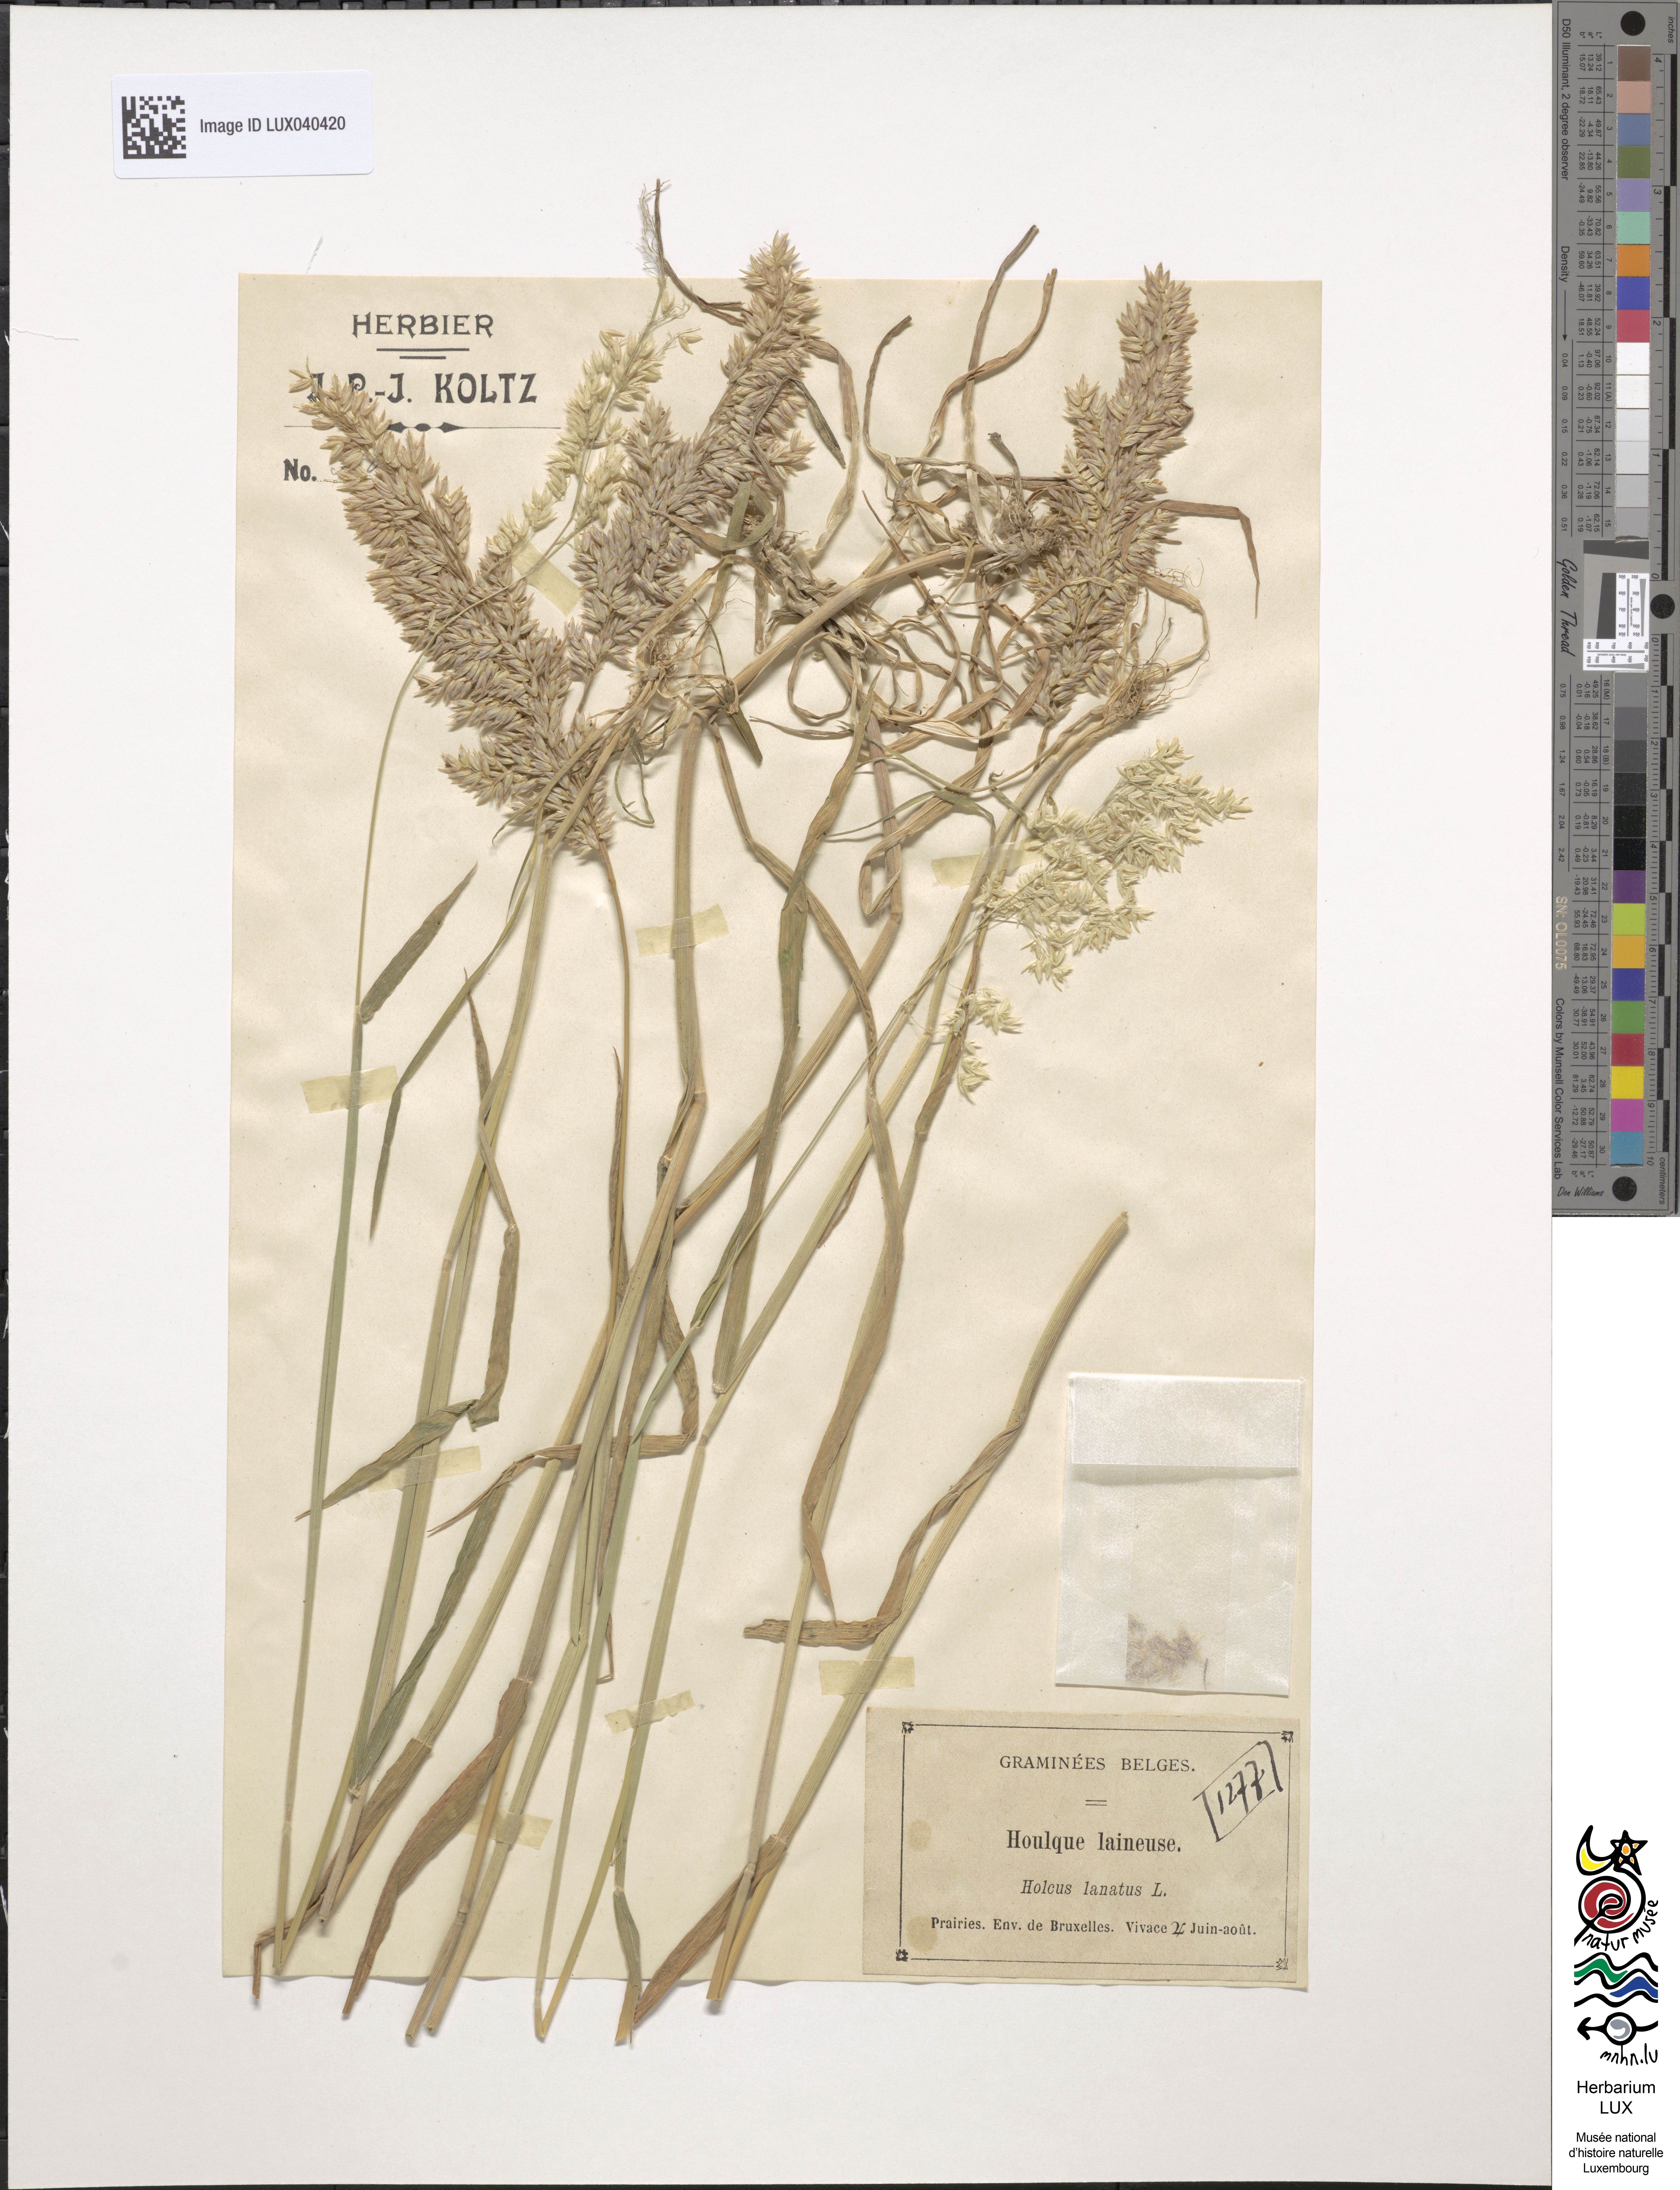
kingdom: Plantae
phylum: Tracheophyta
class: Liliopsida
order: Poales
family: Poaceae
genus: Holcus
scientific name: Holcus lanatus
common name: Yorkshire-fog
